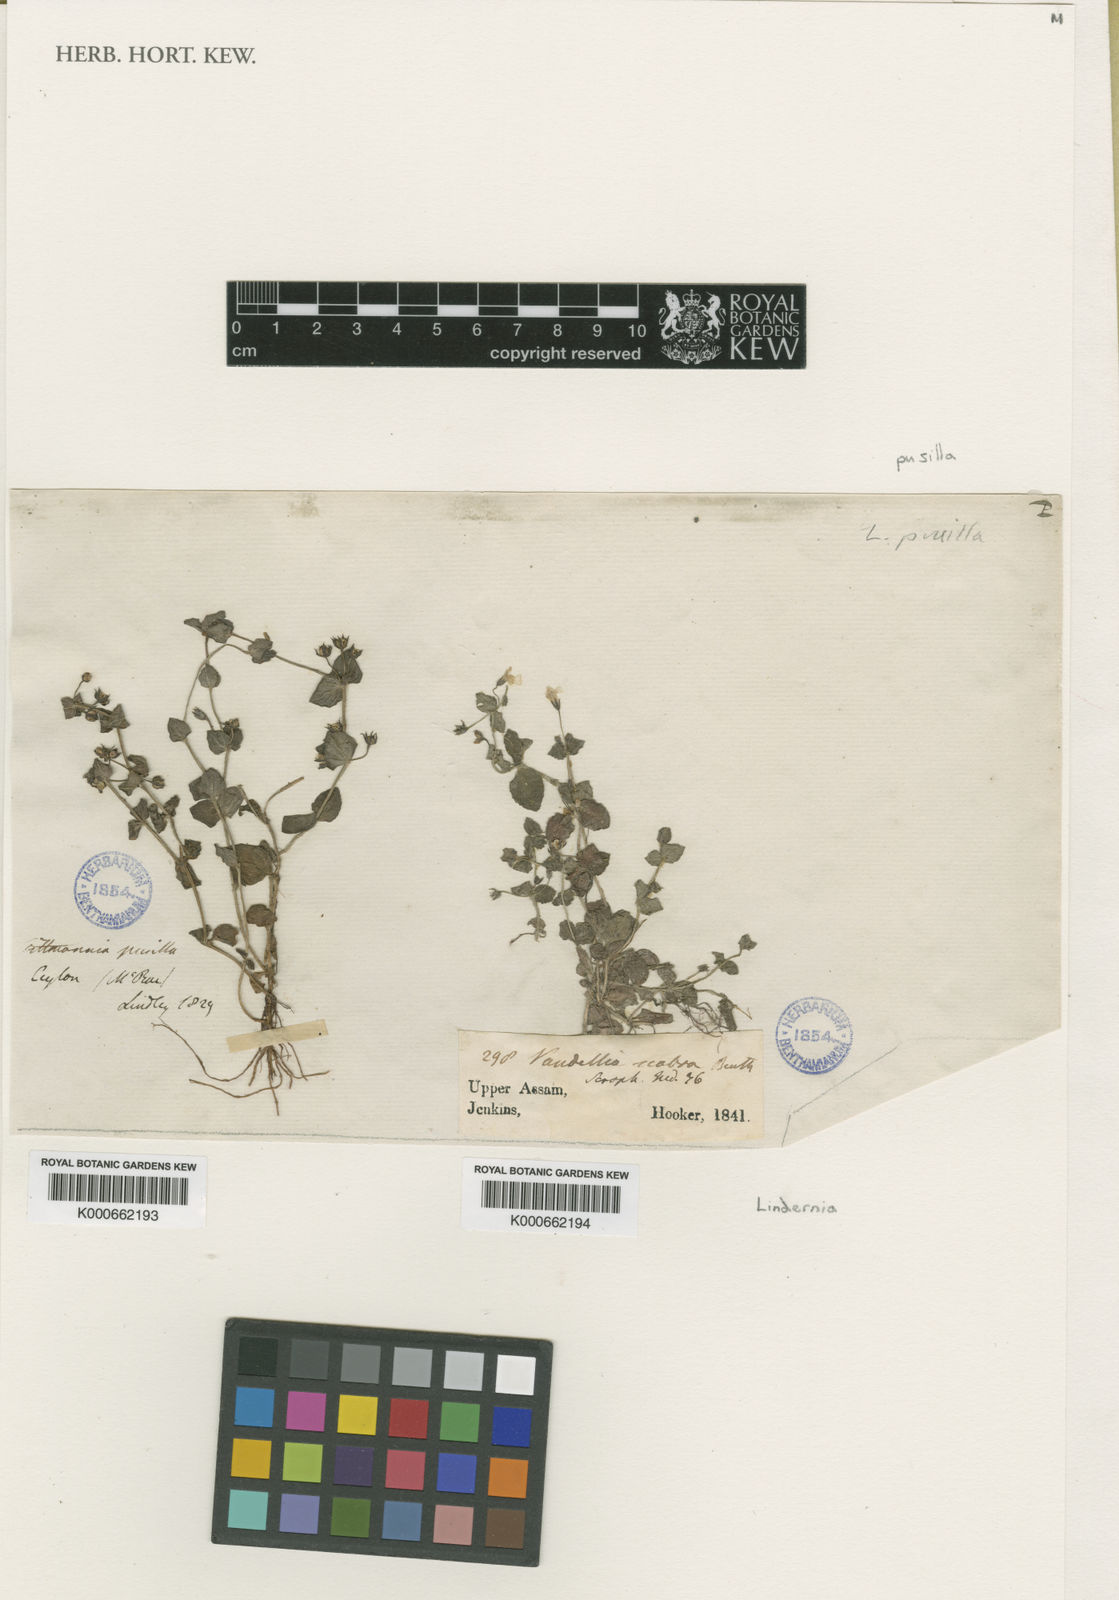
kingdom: Plantae
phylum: Tracheophyta
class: Magnoliopsida
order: Lamiales
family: Linderniaceae
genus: Yamazakia
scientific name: Yamazakia pusilla
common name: Tiny slitwort
